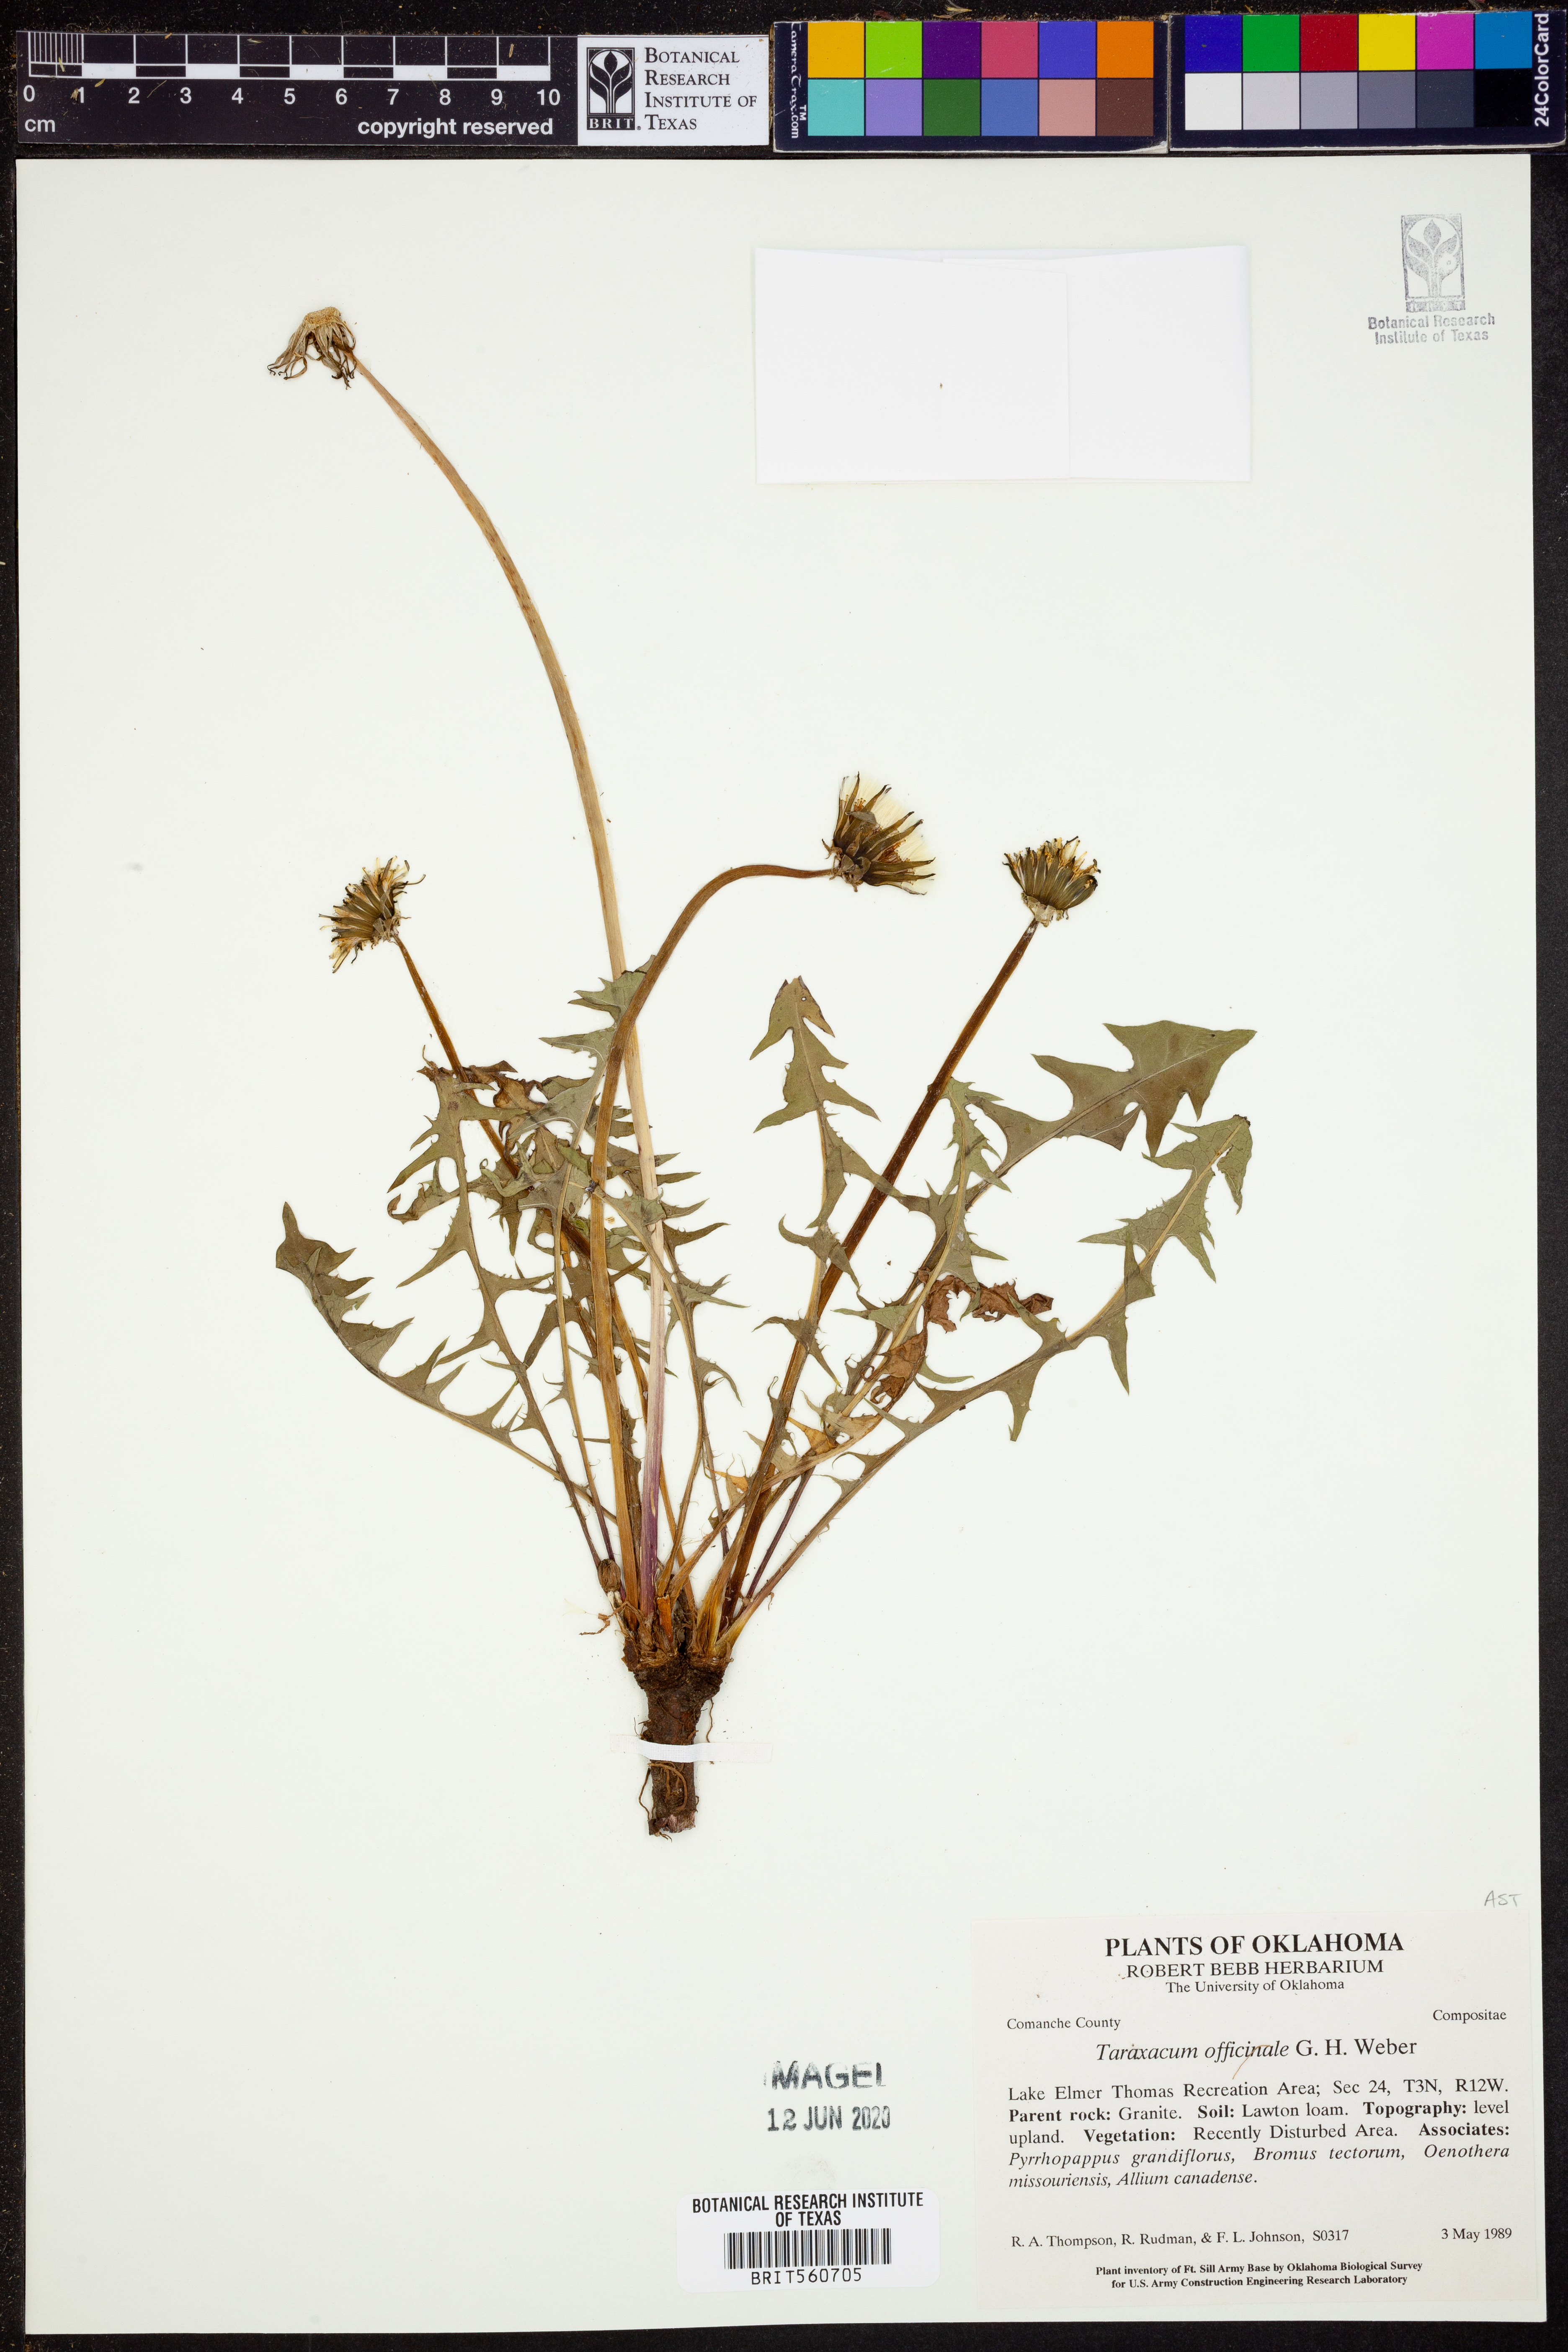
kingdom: Plantae
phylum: Tracheophyta
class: Magnoliopsida
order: Asterales
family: Asteraceae
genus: Taraxacum
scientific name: Taraxacum officinale
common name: Common dandelion
